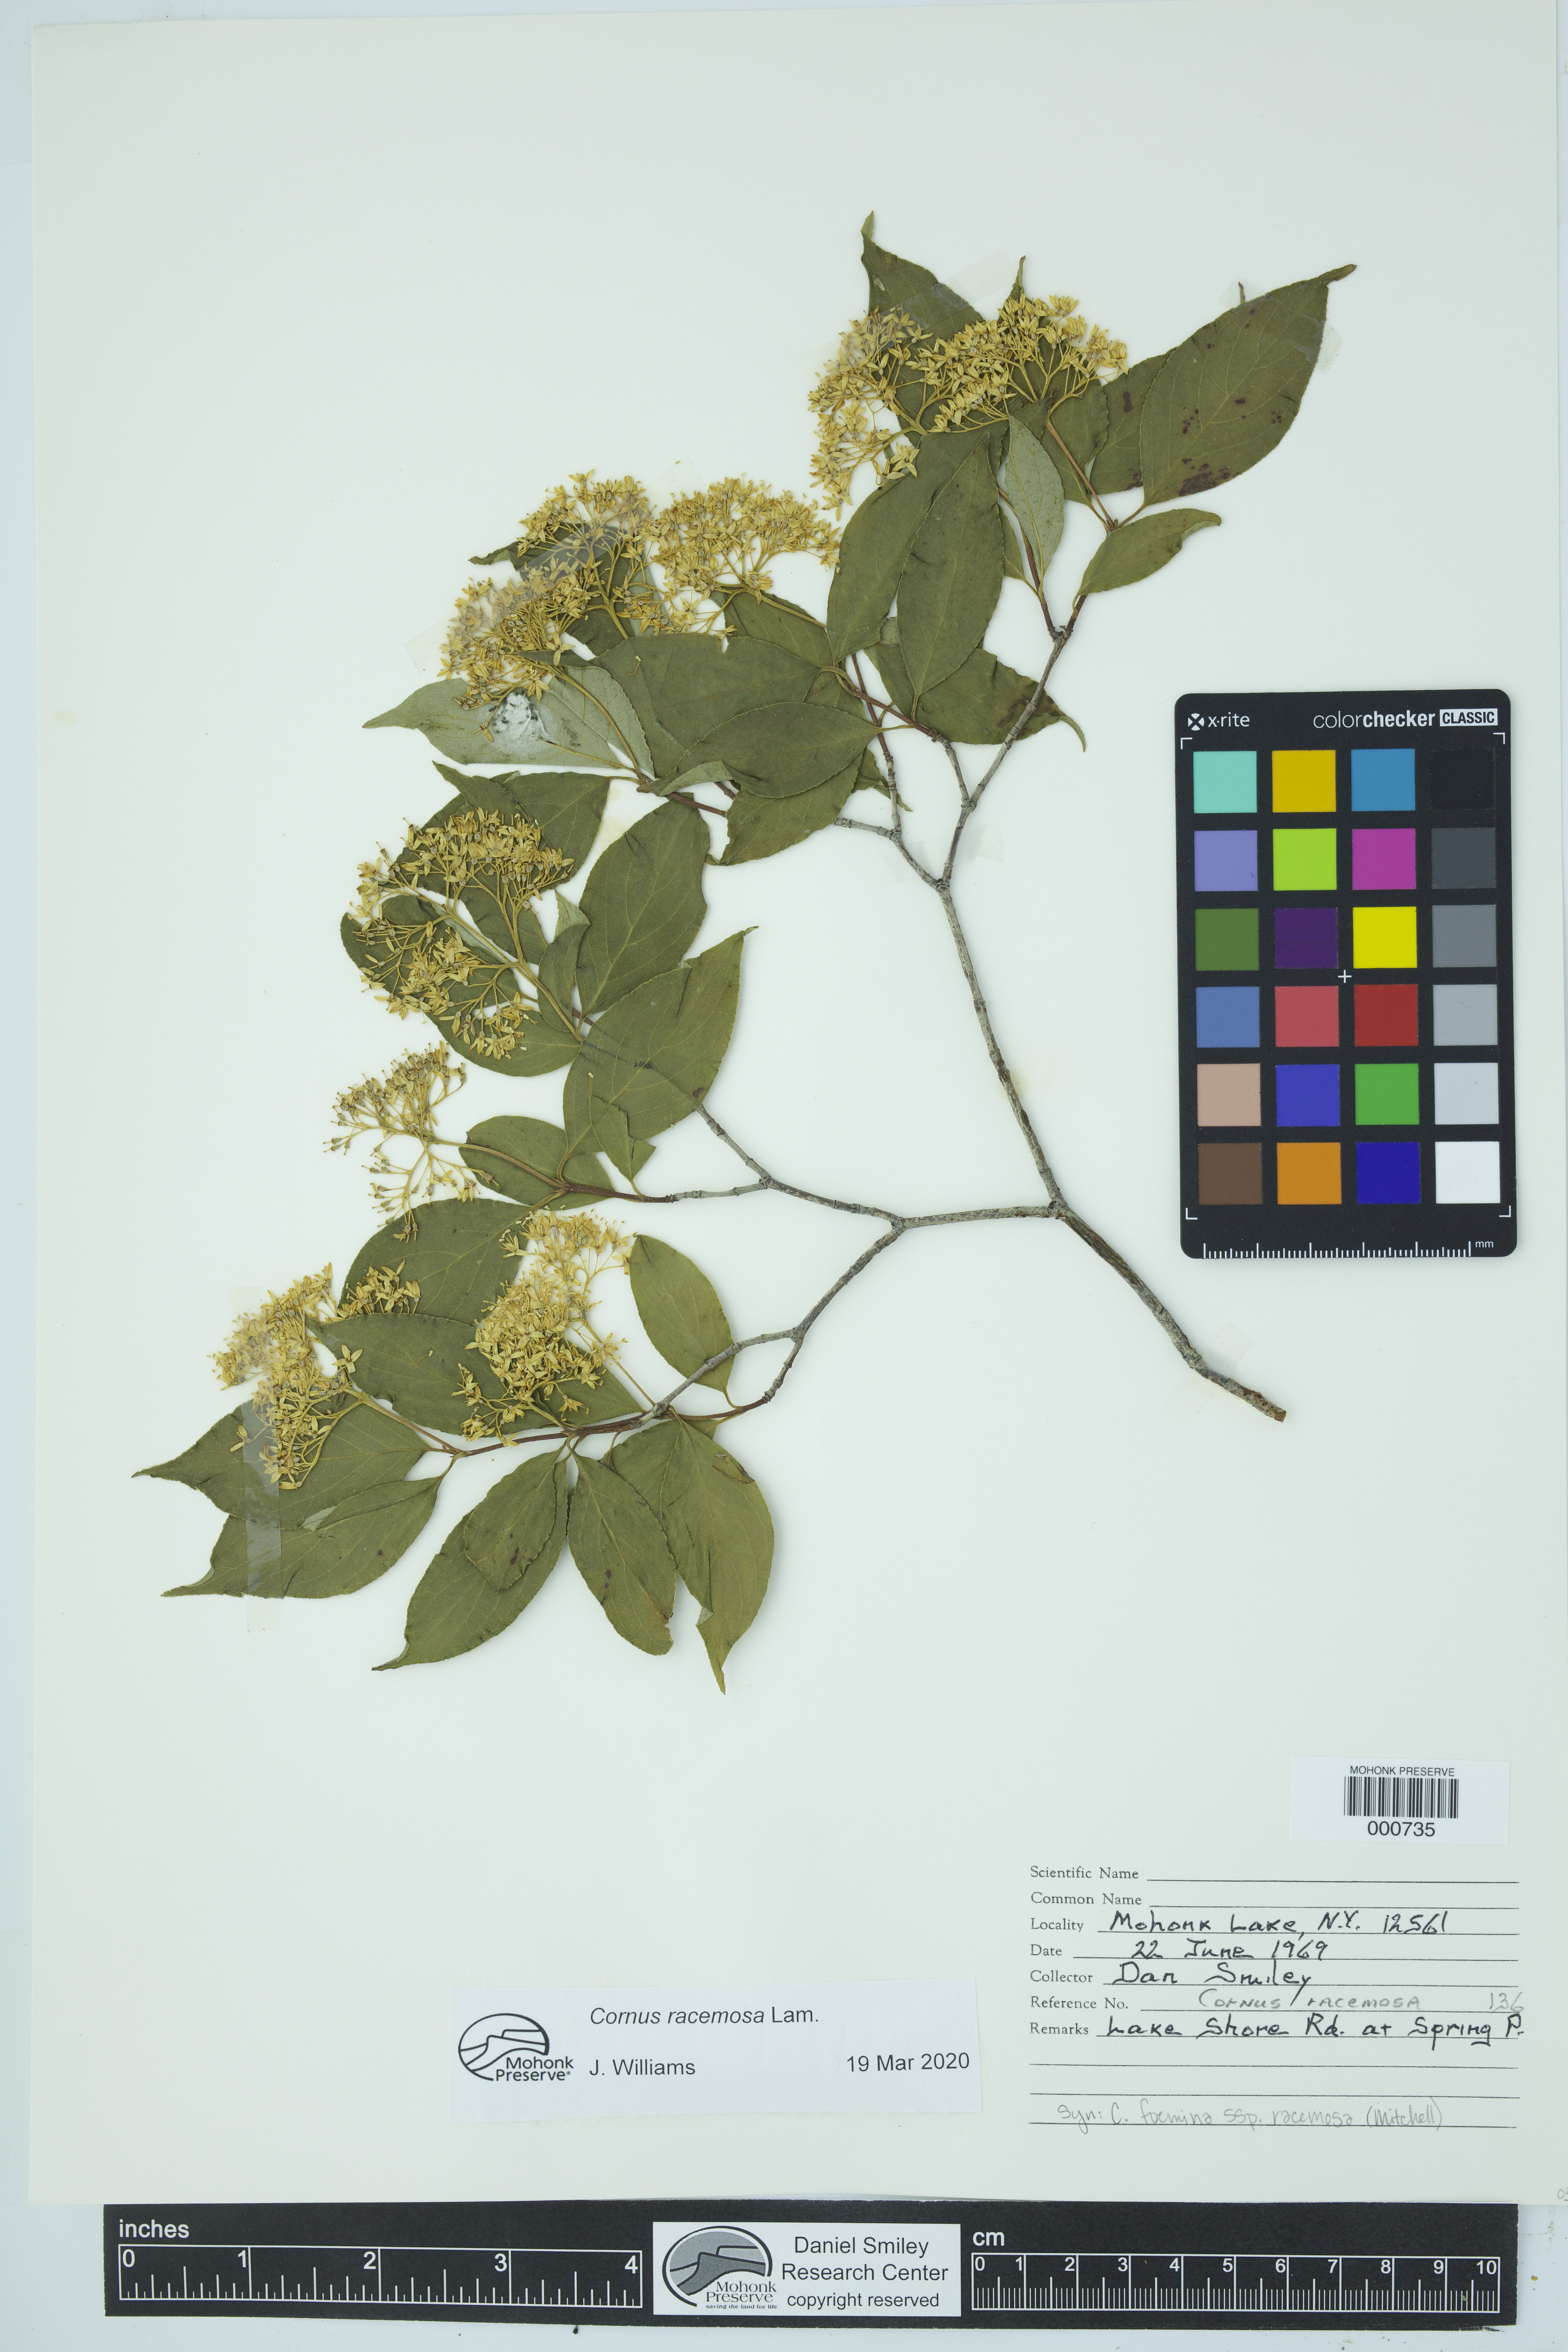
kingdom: Plantae
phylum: Tracheophyta
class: Magnoliopsida
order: Cornales
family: Cornaceae
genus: Cornus
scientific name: Cornus racemosa
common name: Panicled dogwood
